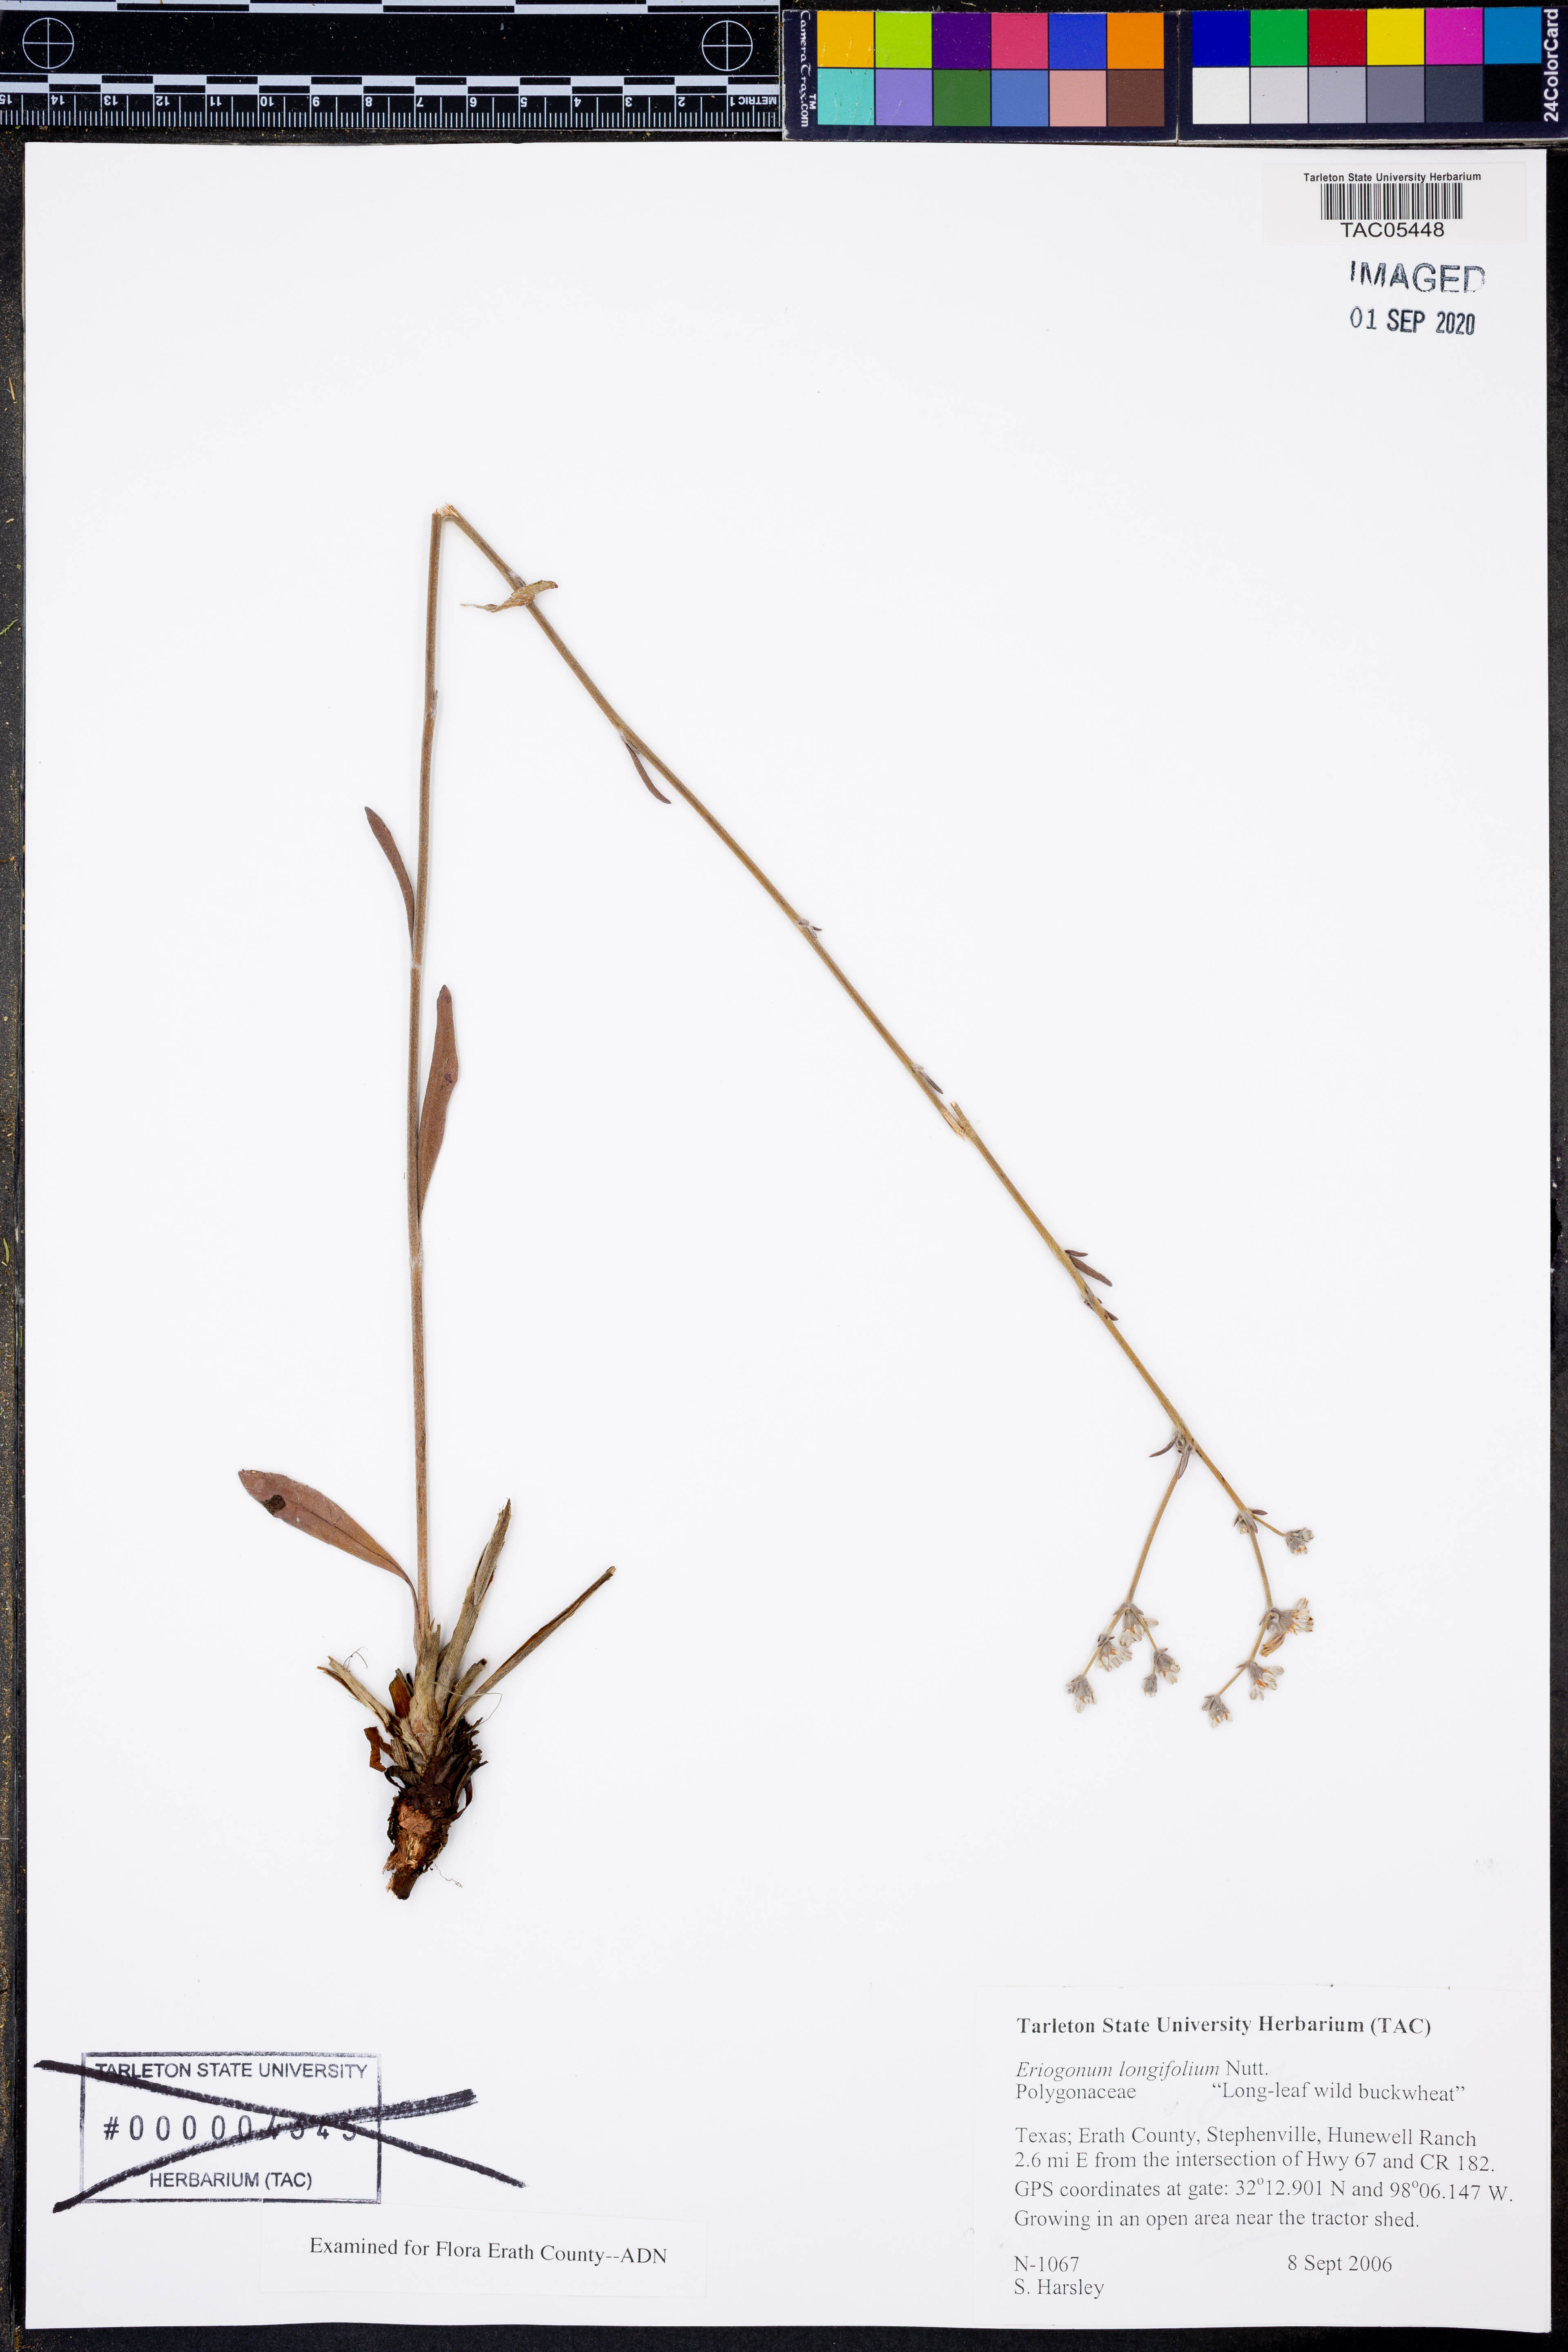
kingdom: Plantae
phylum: Tracheophyta
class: Magnoliopsida
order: Caryophyllales
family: Polygonaceae
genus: Eriogonum
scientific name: Eriogonum longifolium
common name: Longleaf wild buckwheat
